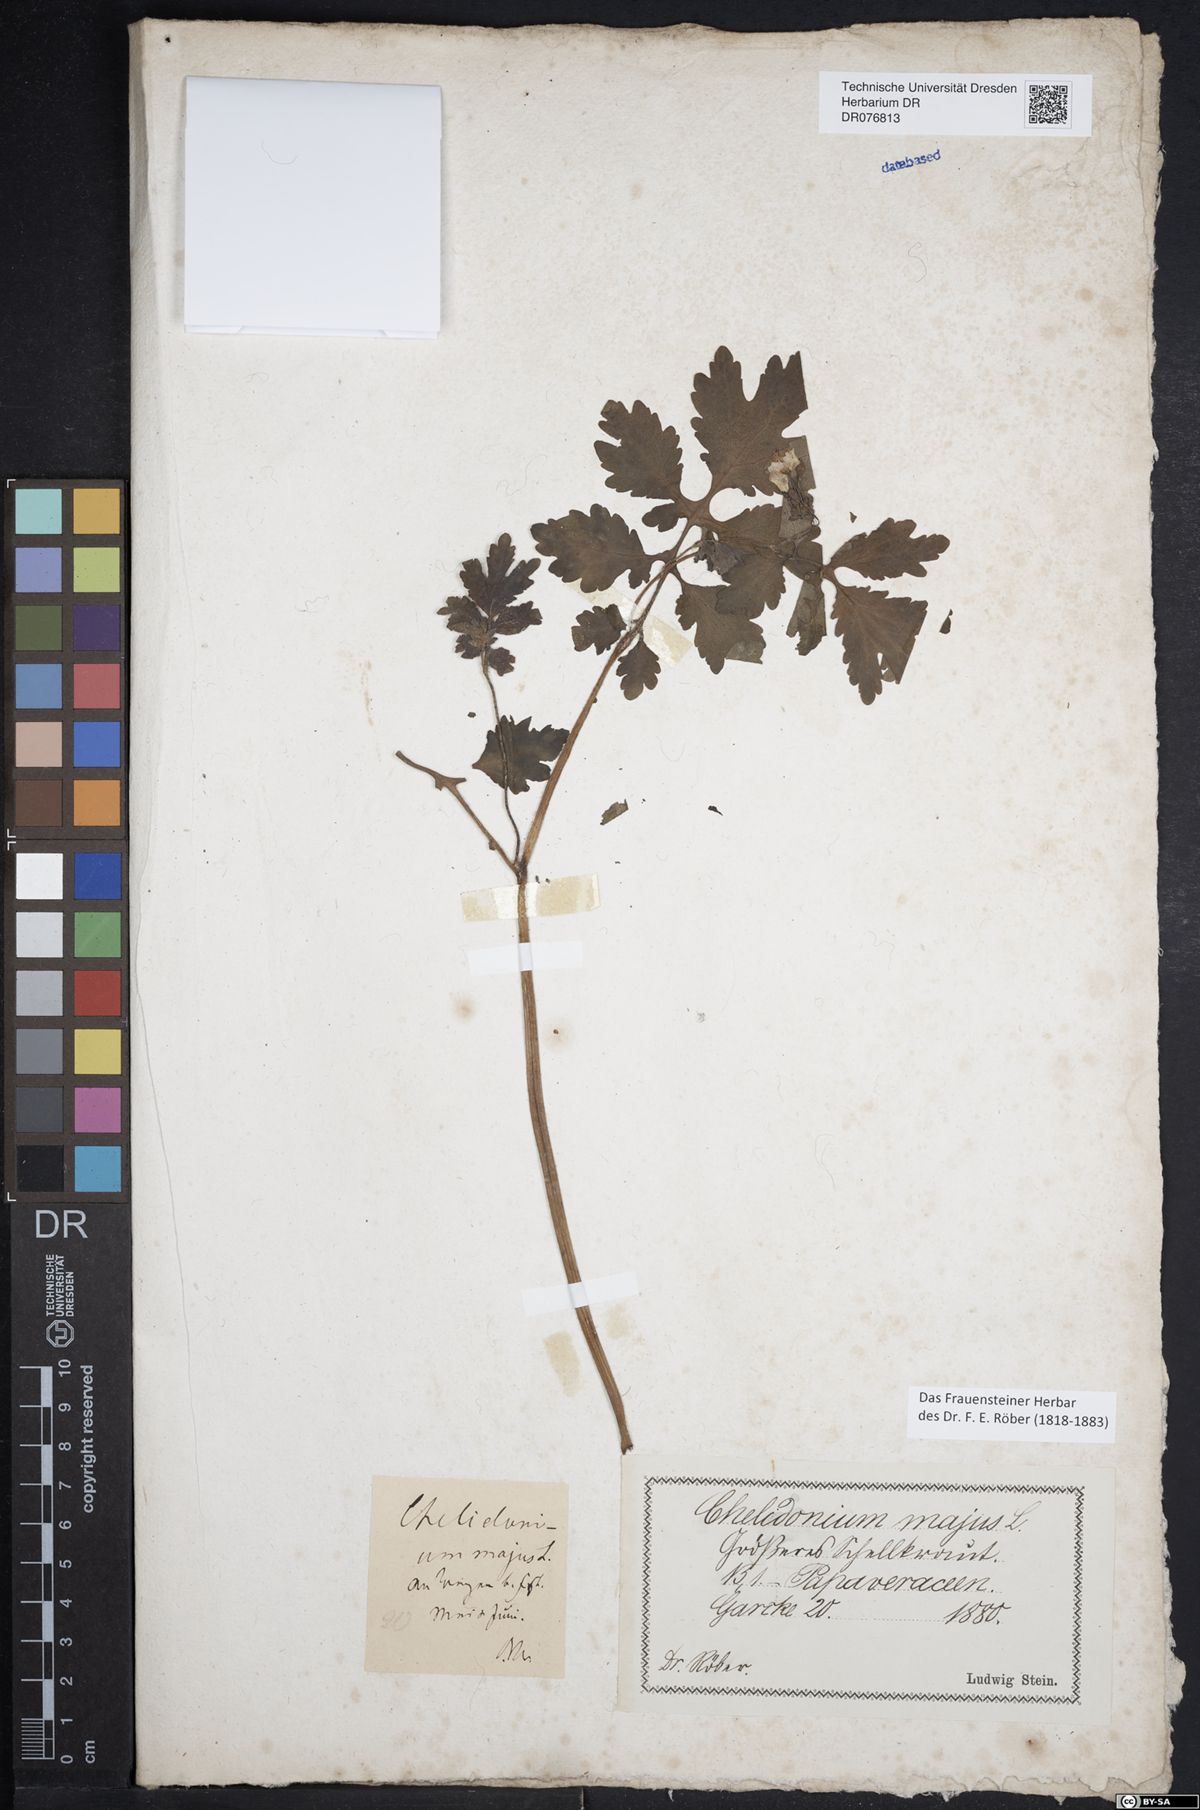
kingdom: Plantae
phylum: Tracheophyta
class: Magnoliopsida
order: Ranunculales
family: Papaveraceae
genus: Chelidonium
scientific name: Chelidonium majus
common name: Greater celandine
